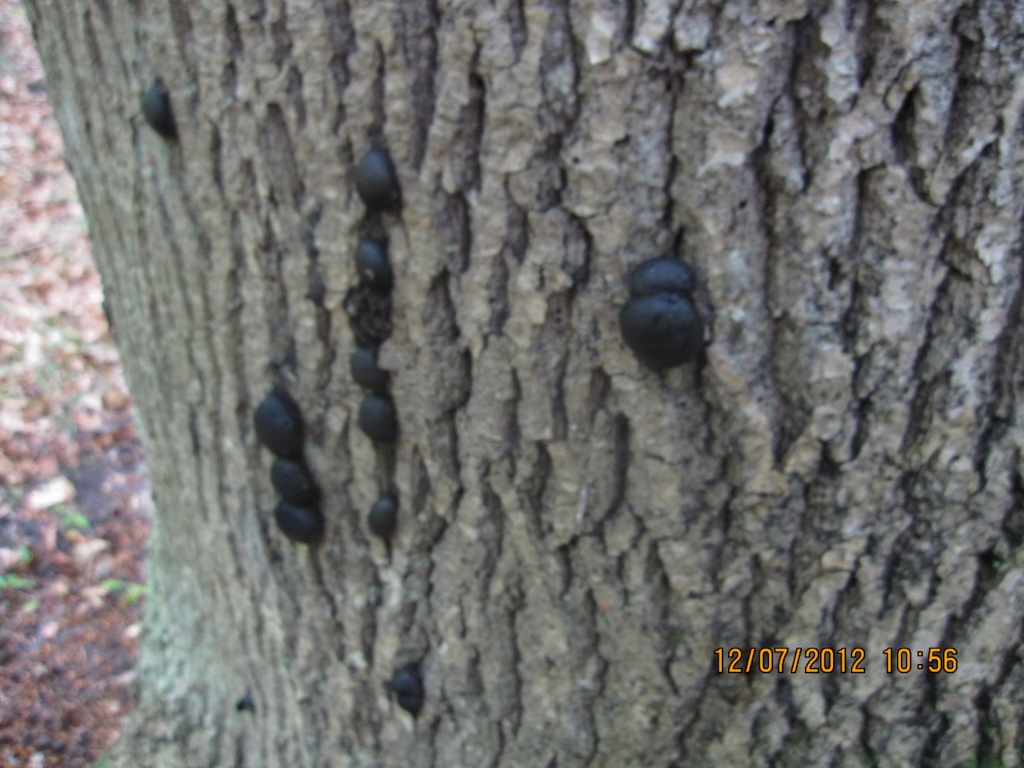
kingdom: Fungi
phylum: Ascomycota
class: Sordariomycetes
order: Xylariales
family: Hypoxylaceae
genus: Daldinia
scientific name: Daldinia concentrica
